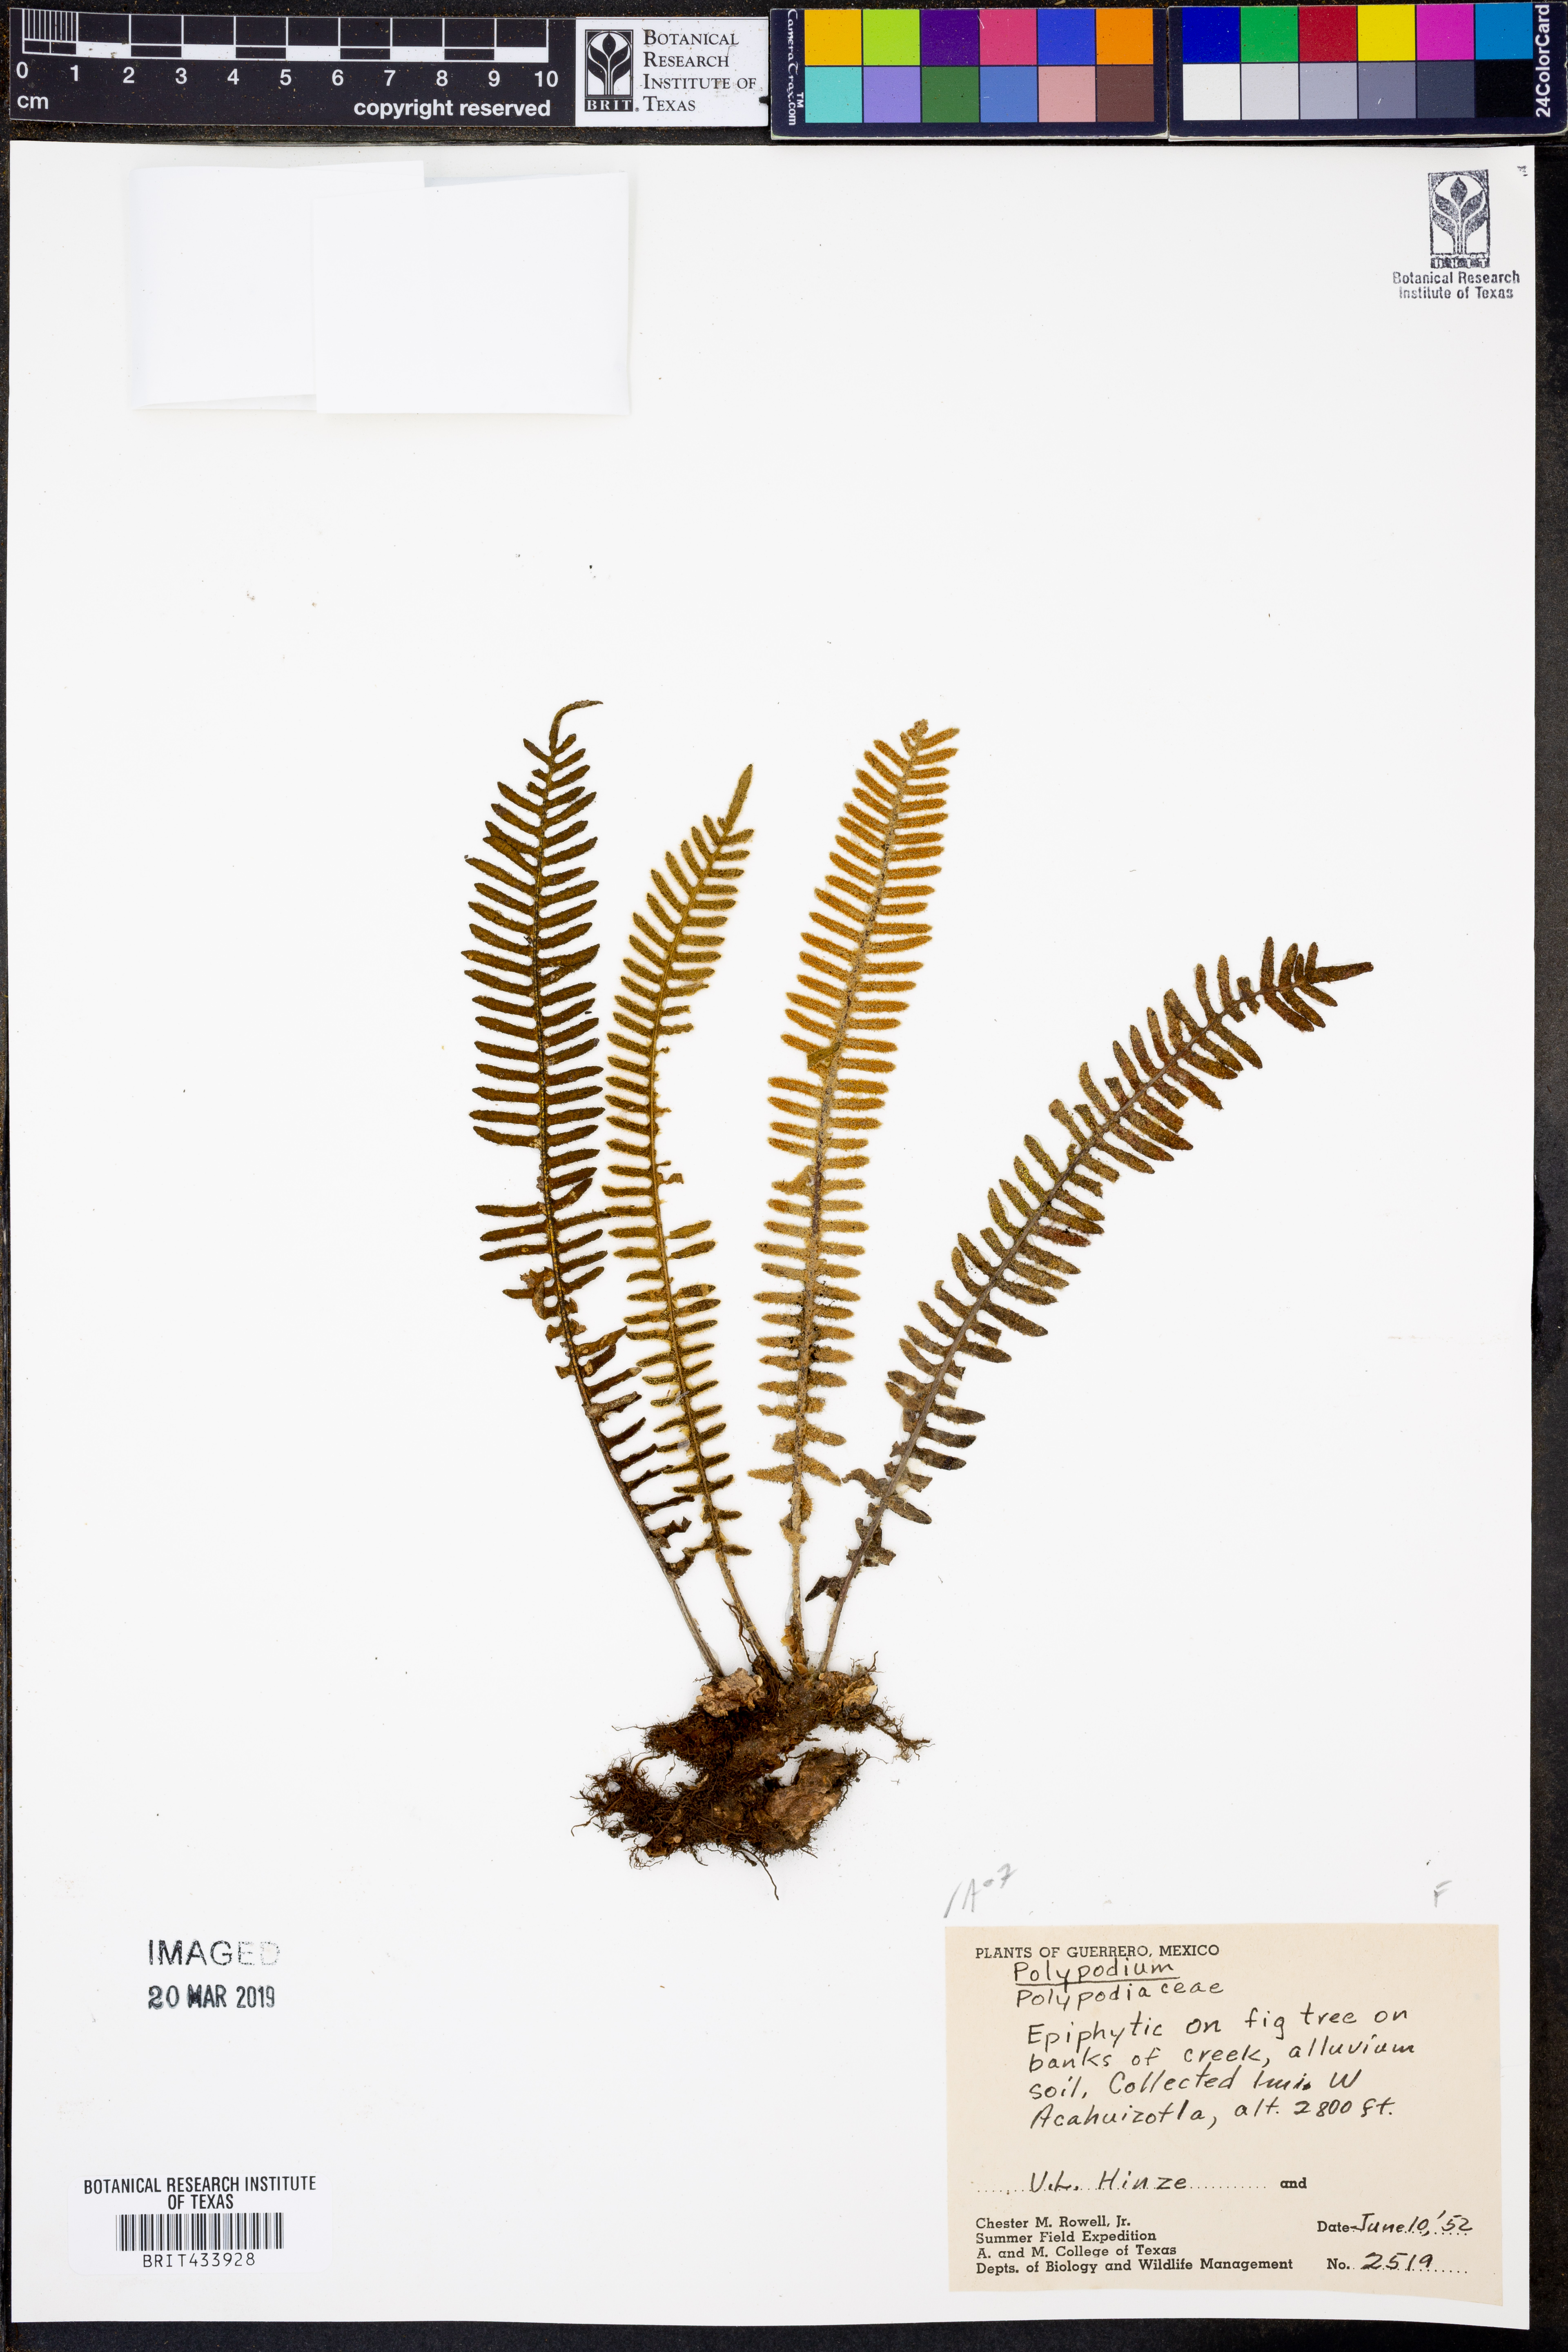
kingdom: Plantae
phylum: Tracheophyta
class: Polypodiopsida
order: Polypodiales
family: Polypodiaceae
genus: Polypodium
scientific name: Polypodium
